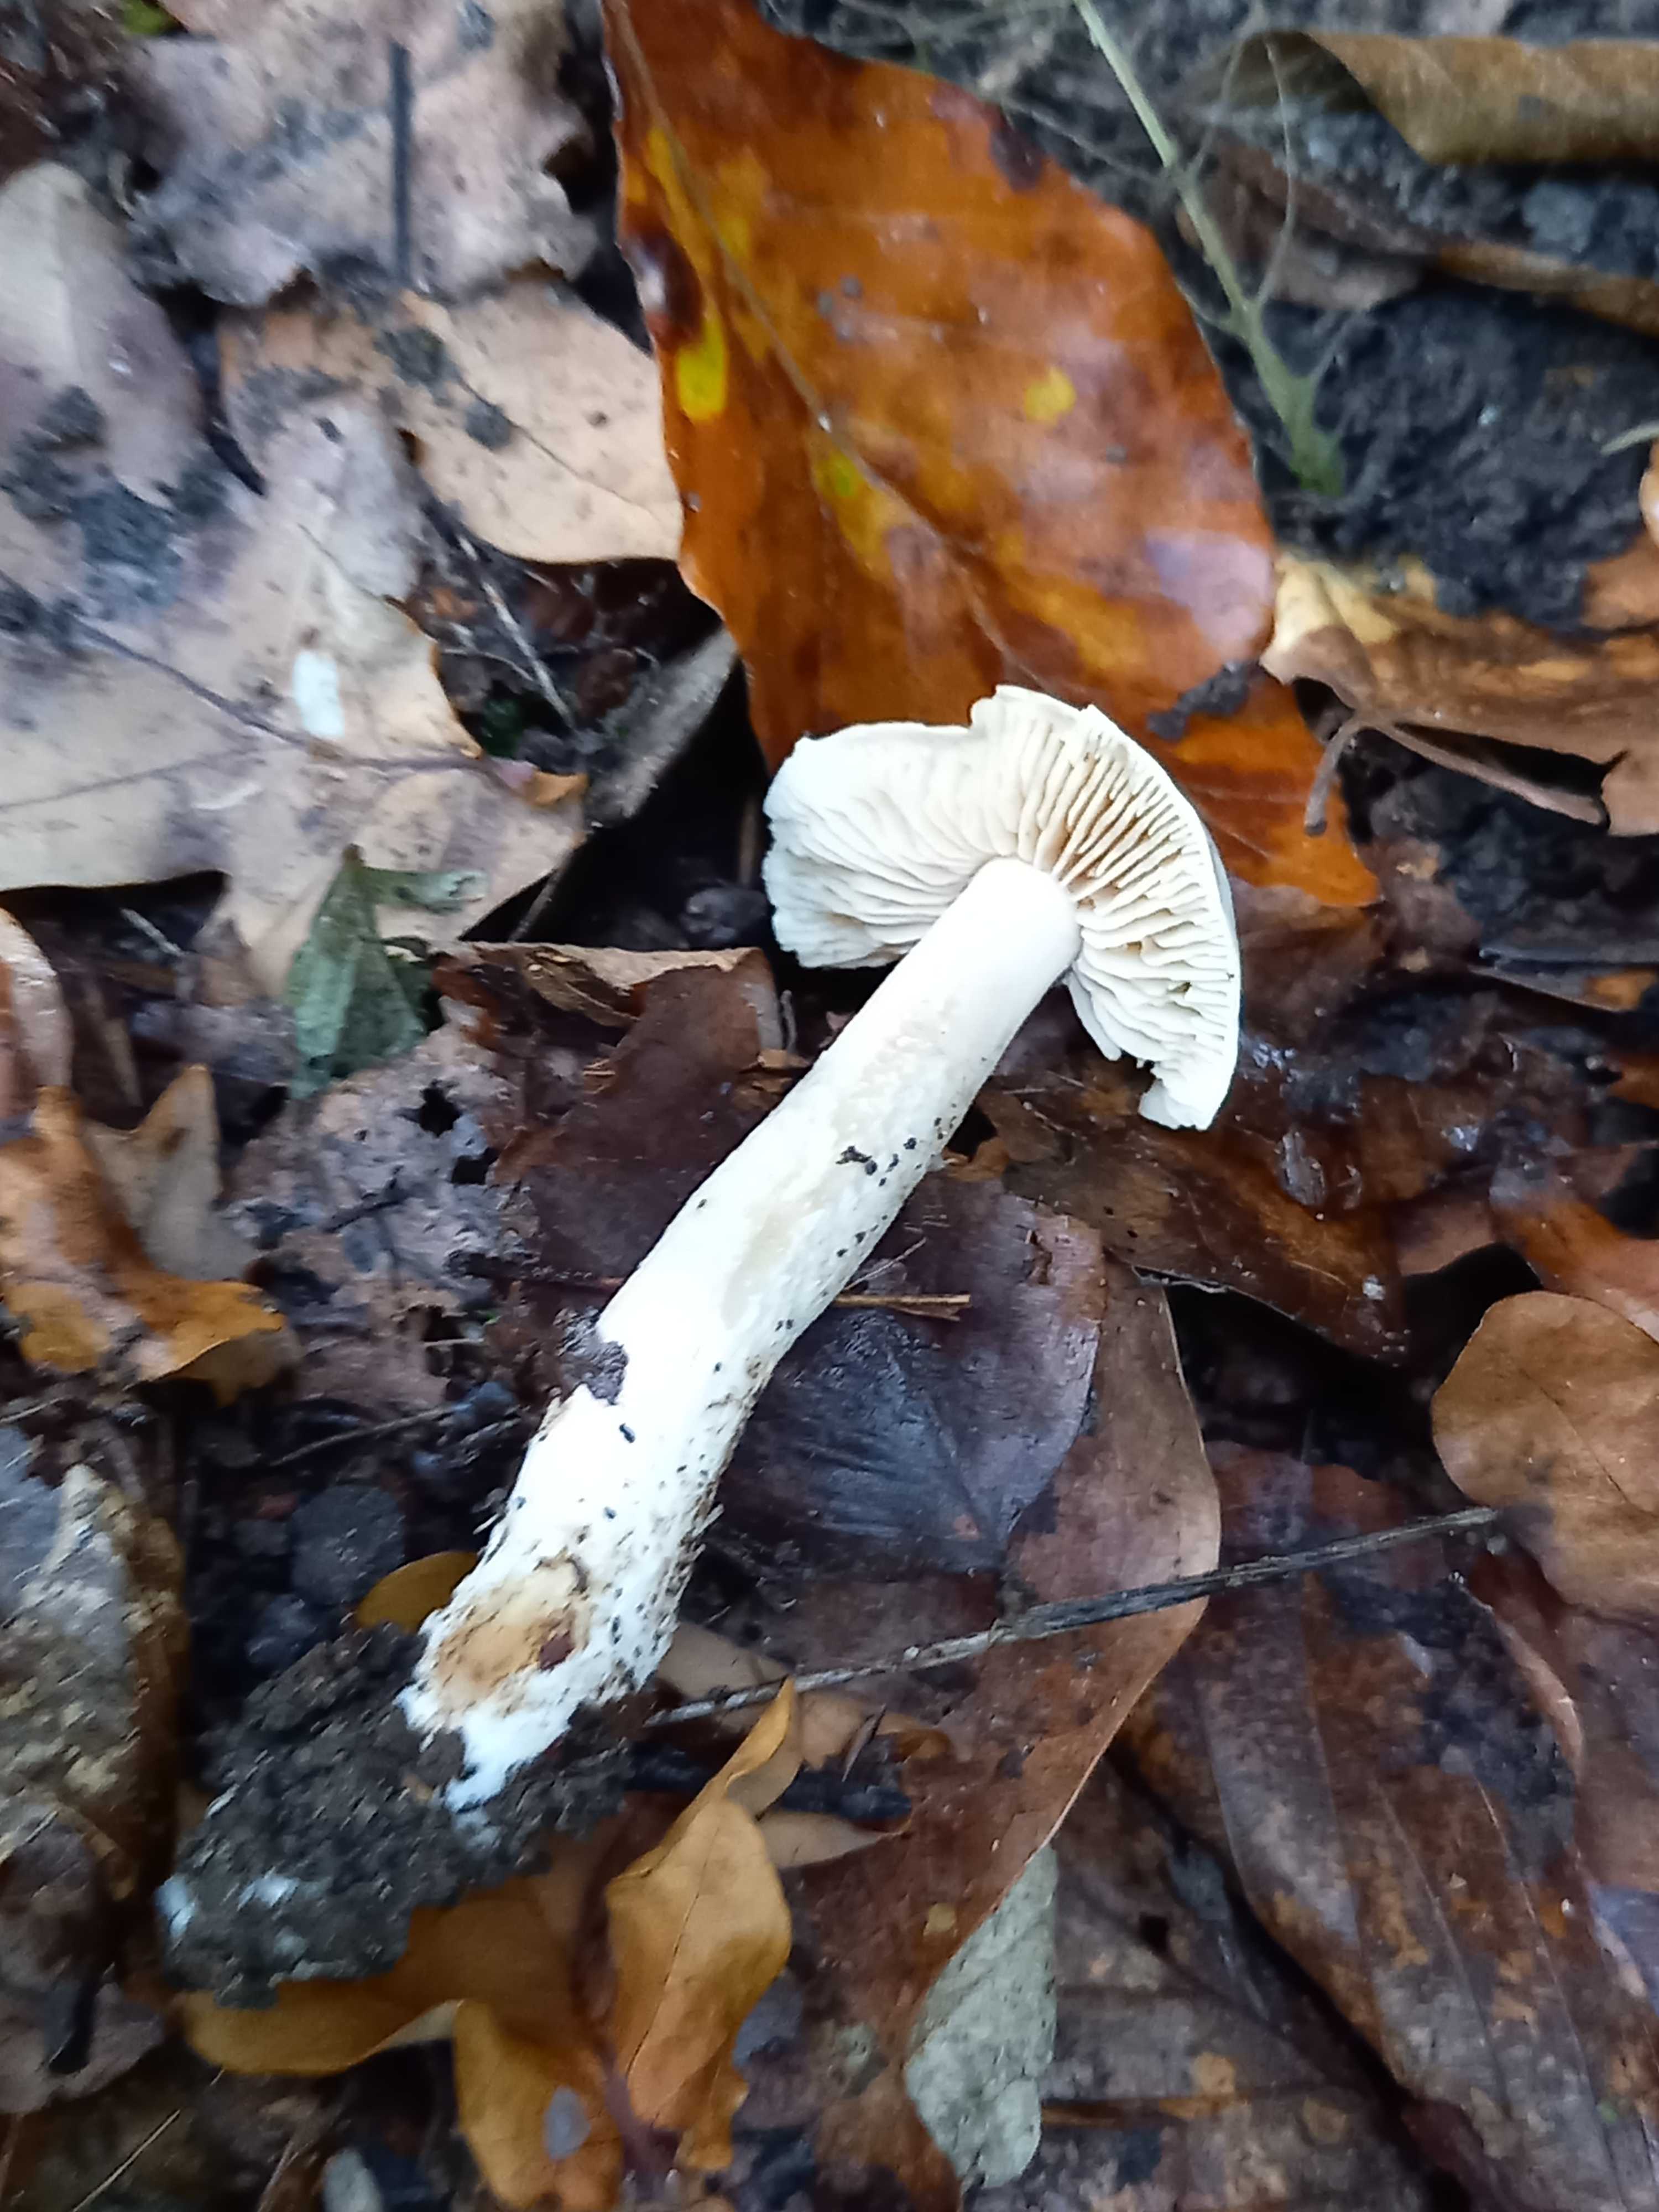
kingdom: Fungi
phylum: Basidiomycota
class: Agaricomycetes
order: Agaricales
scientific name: Agaricales
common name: champignonordenen
